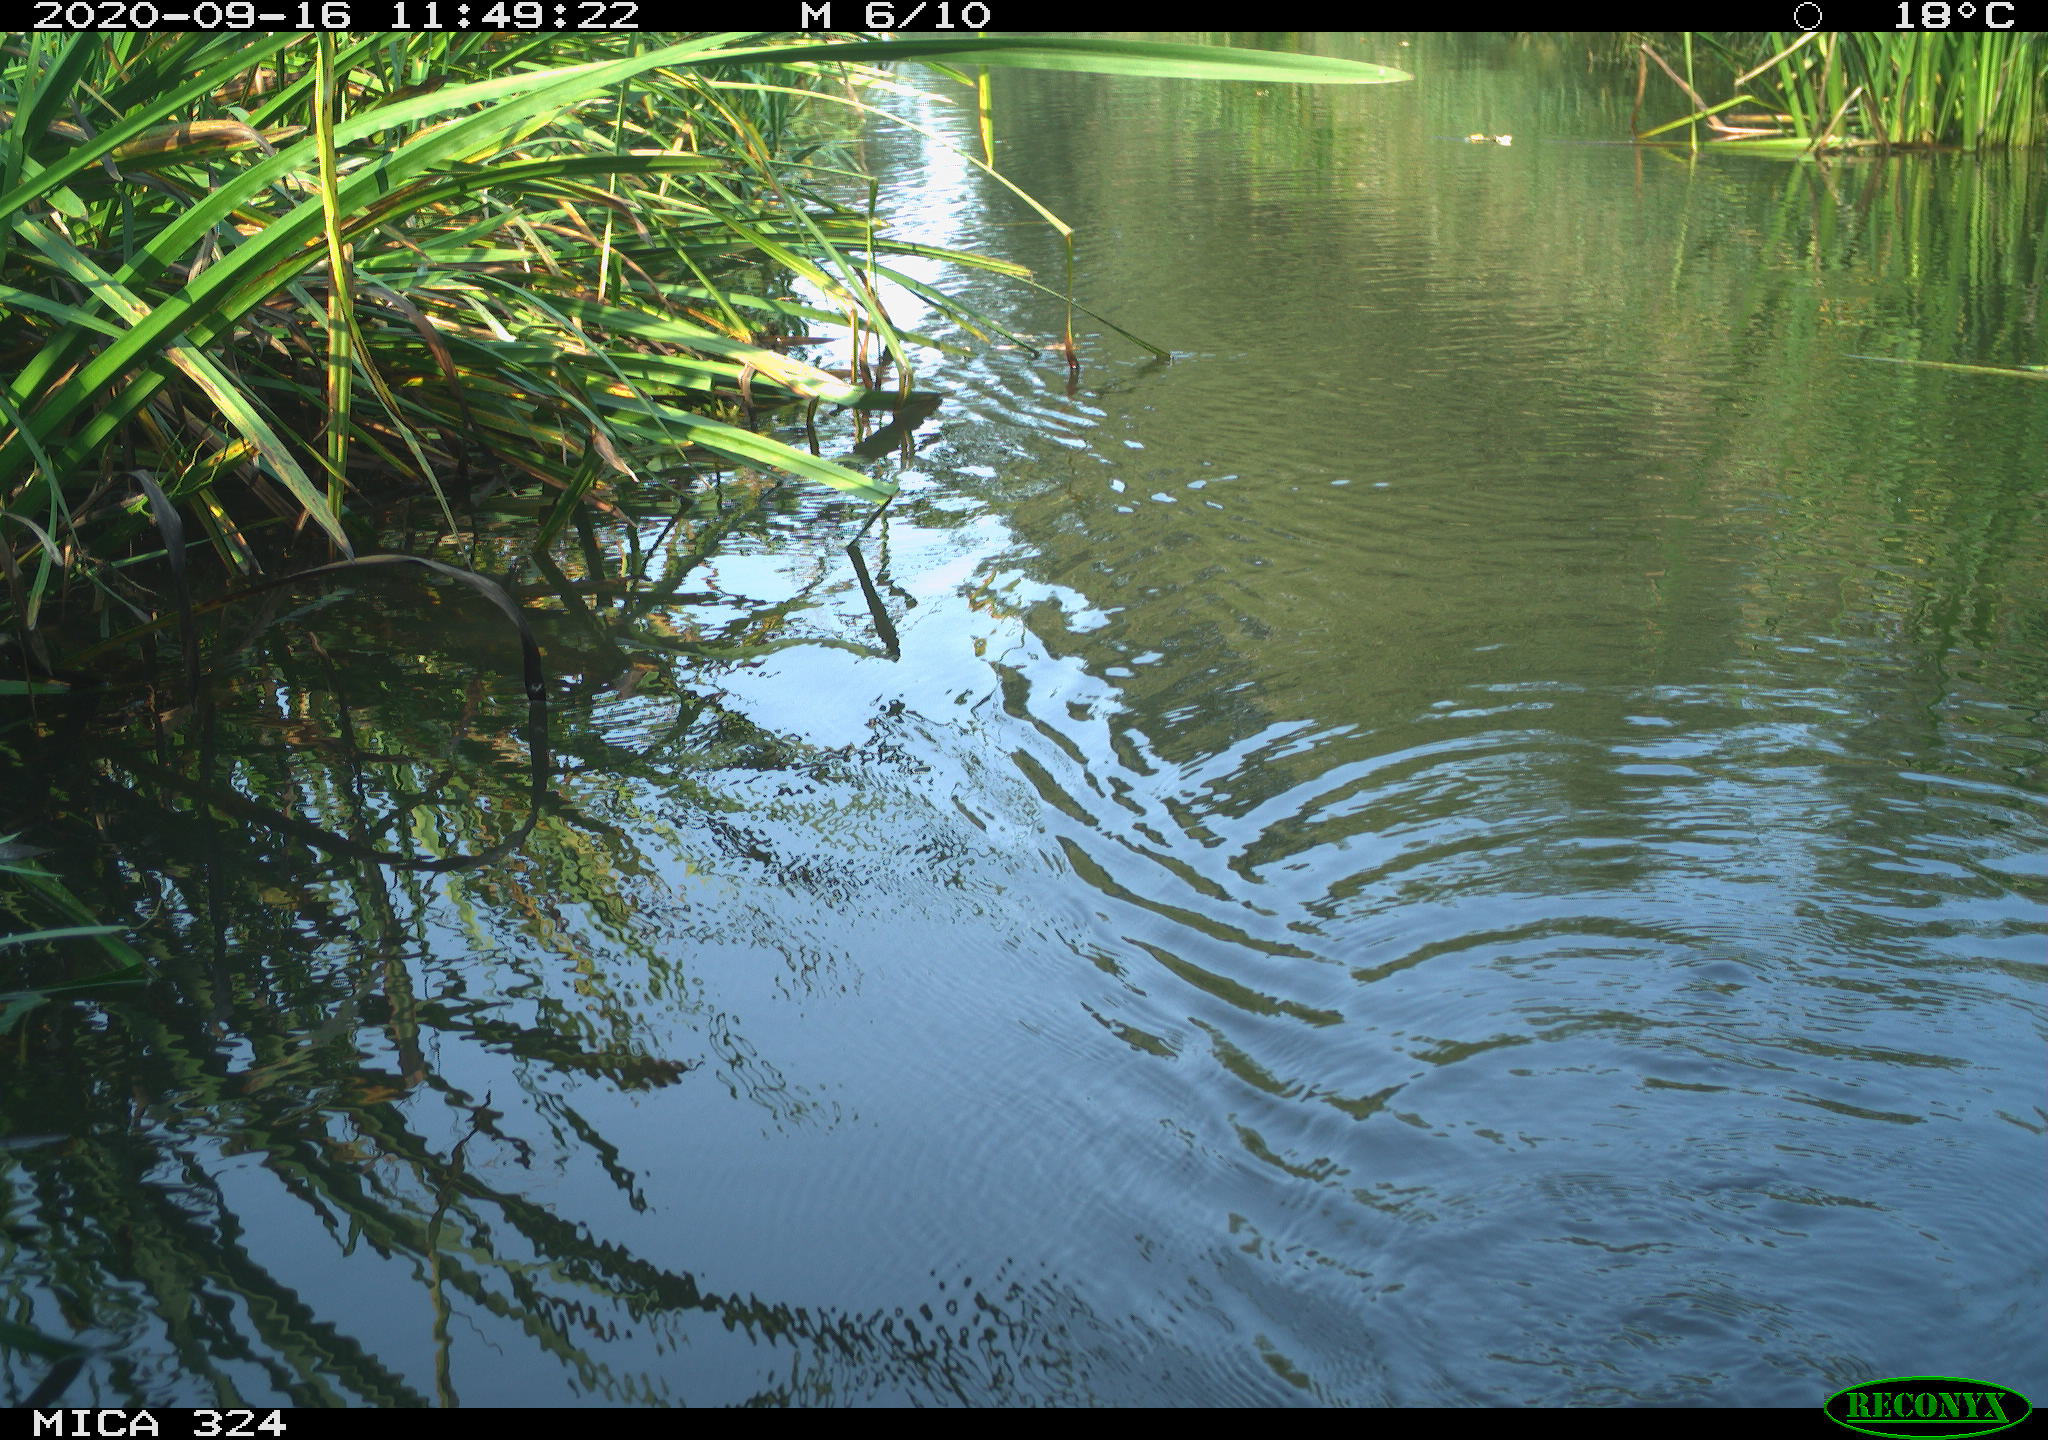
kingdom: Animalia
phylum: Chordata
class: Mammalia
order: Rodentia
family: Cricetidae
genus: Ondatra
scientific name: Ondatra zibethicus
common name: Muskrat
